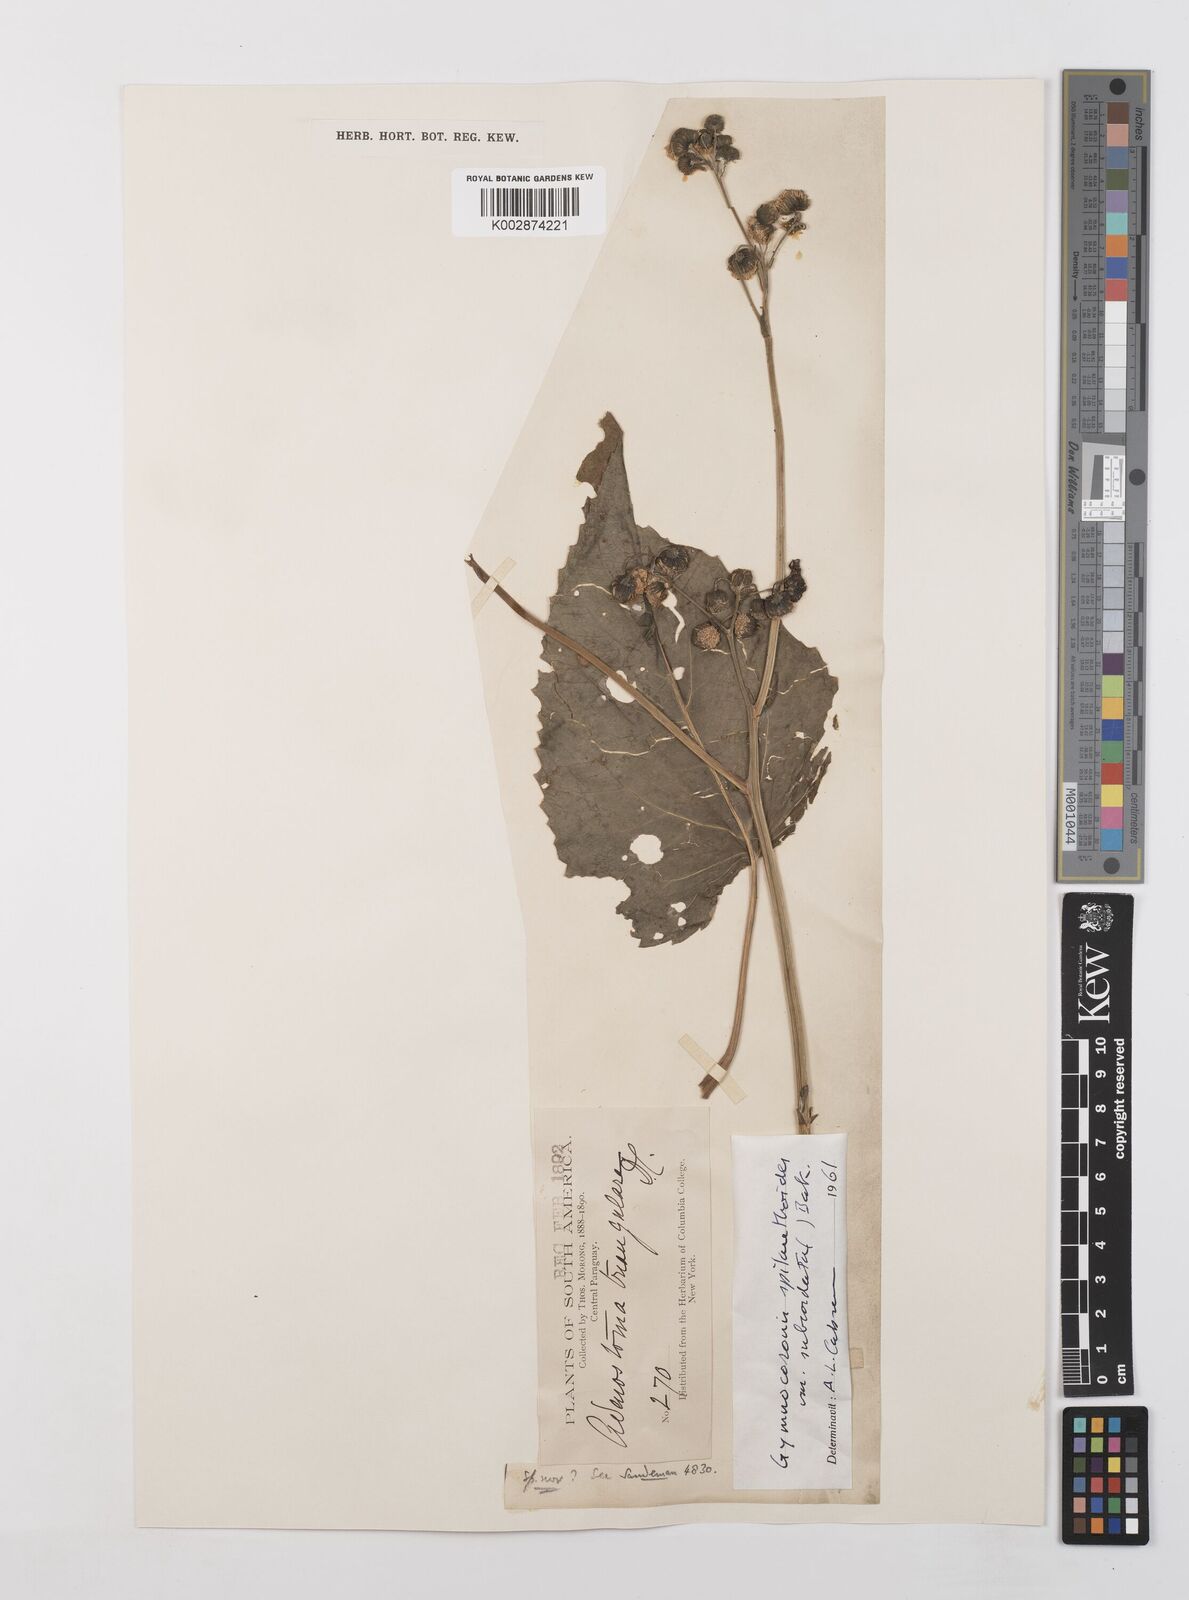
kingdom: Plantae
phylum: Tracheophyta
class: Magnoliopsida
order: Asterales
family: Asteraceae
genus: Gymnocoronis
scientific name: Gymnocoronis spilanthoides
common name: Senegal teaplant
